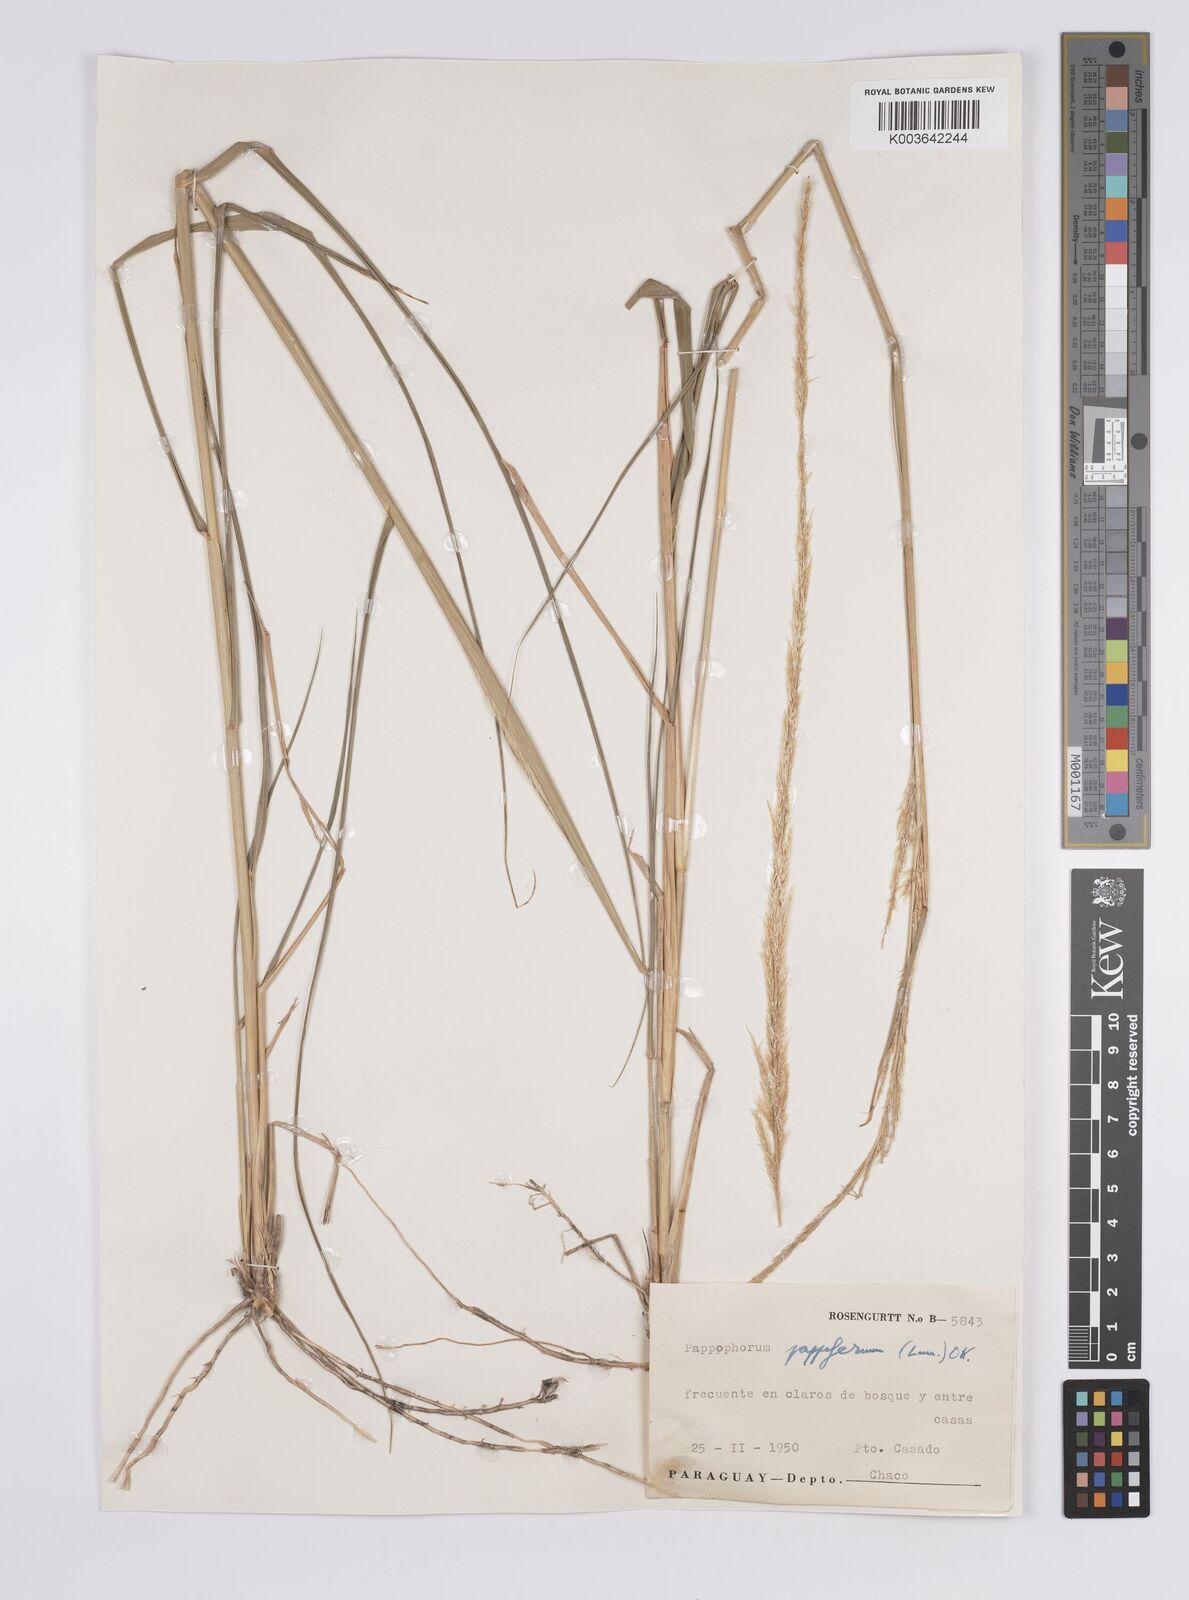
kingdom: Plantae
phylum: Tracheophyta
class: Liliopsida
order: Poales
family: Poaceae
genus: Pappophorum
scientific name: Pappophorum pappiferum
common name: Crabgrass
